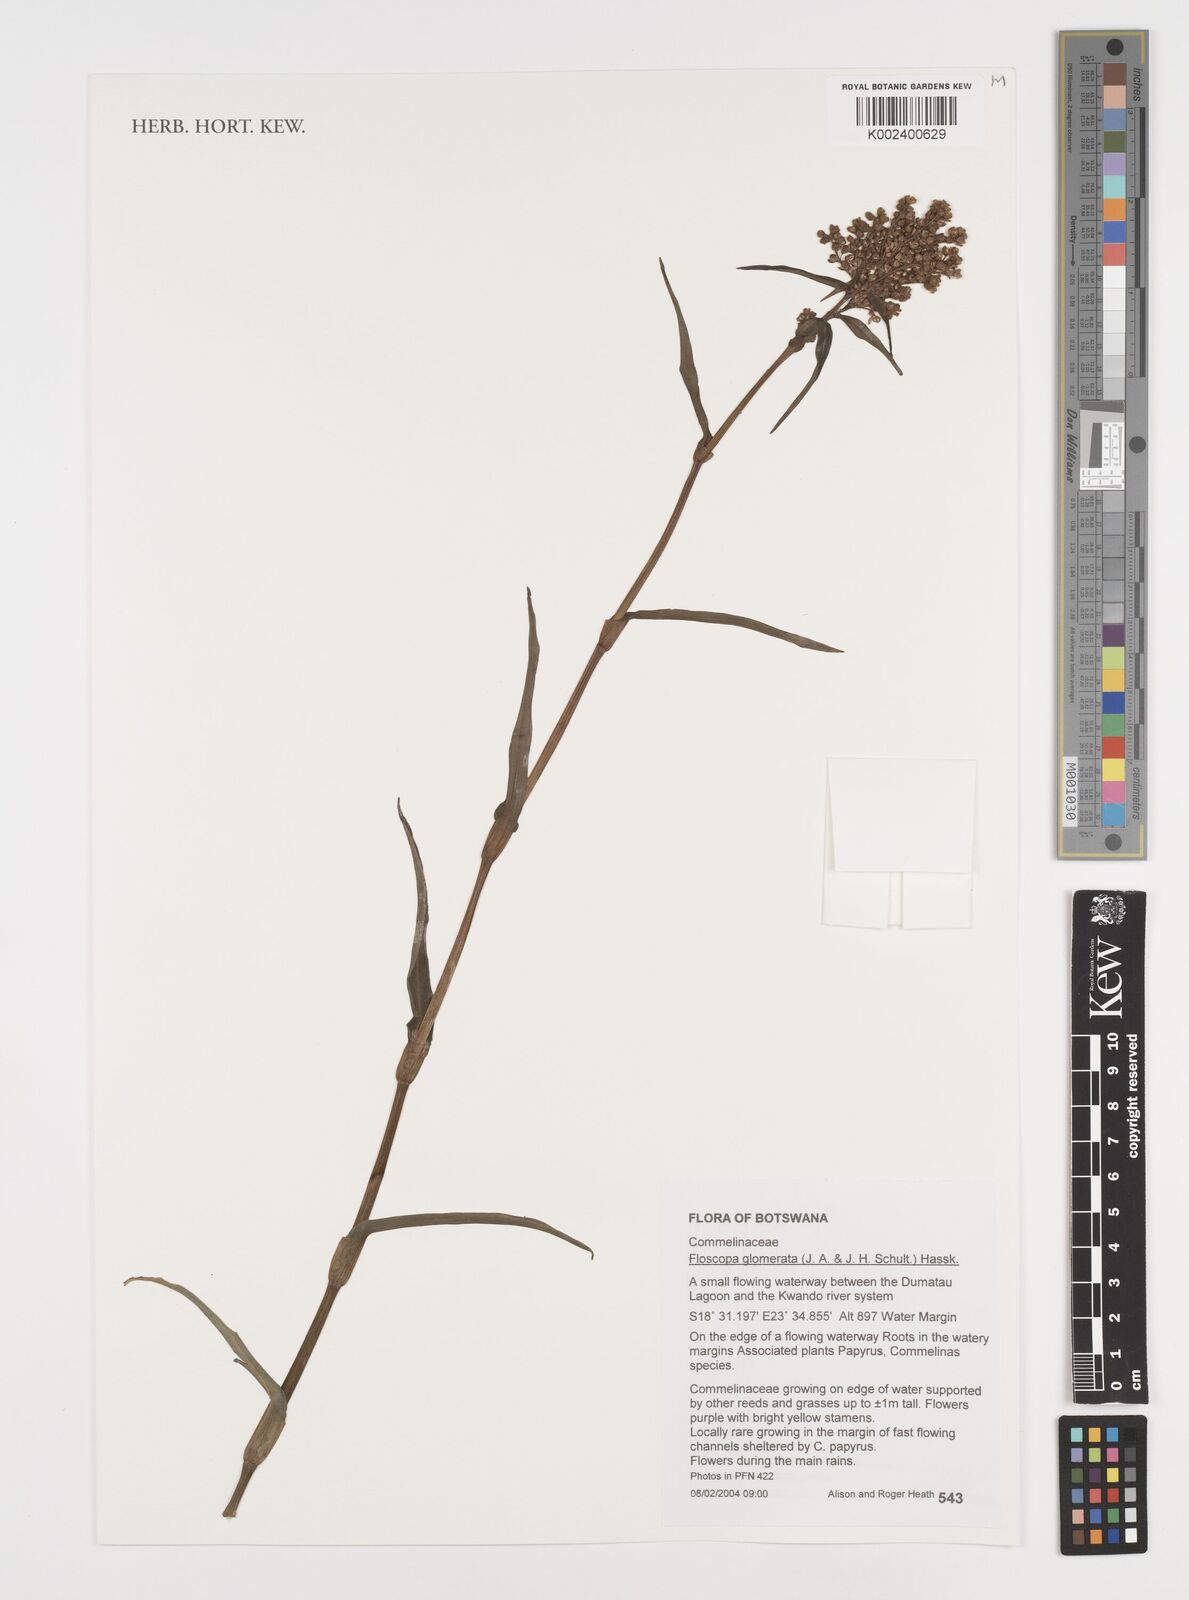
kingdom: Plantae
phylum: Tracheophyta
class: Liliopsida
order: Commelinales
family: Commelinaceae
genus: Floscopa
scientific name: Floscopa glomerata
